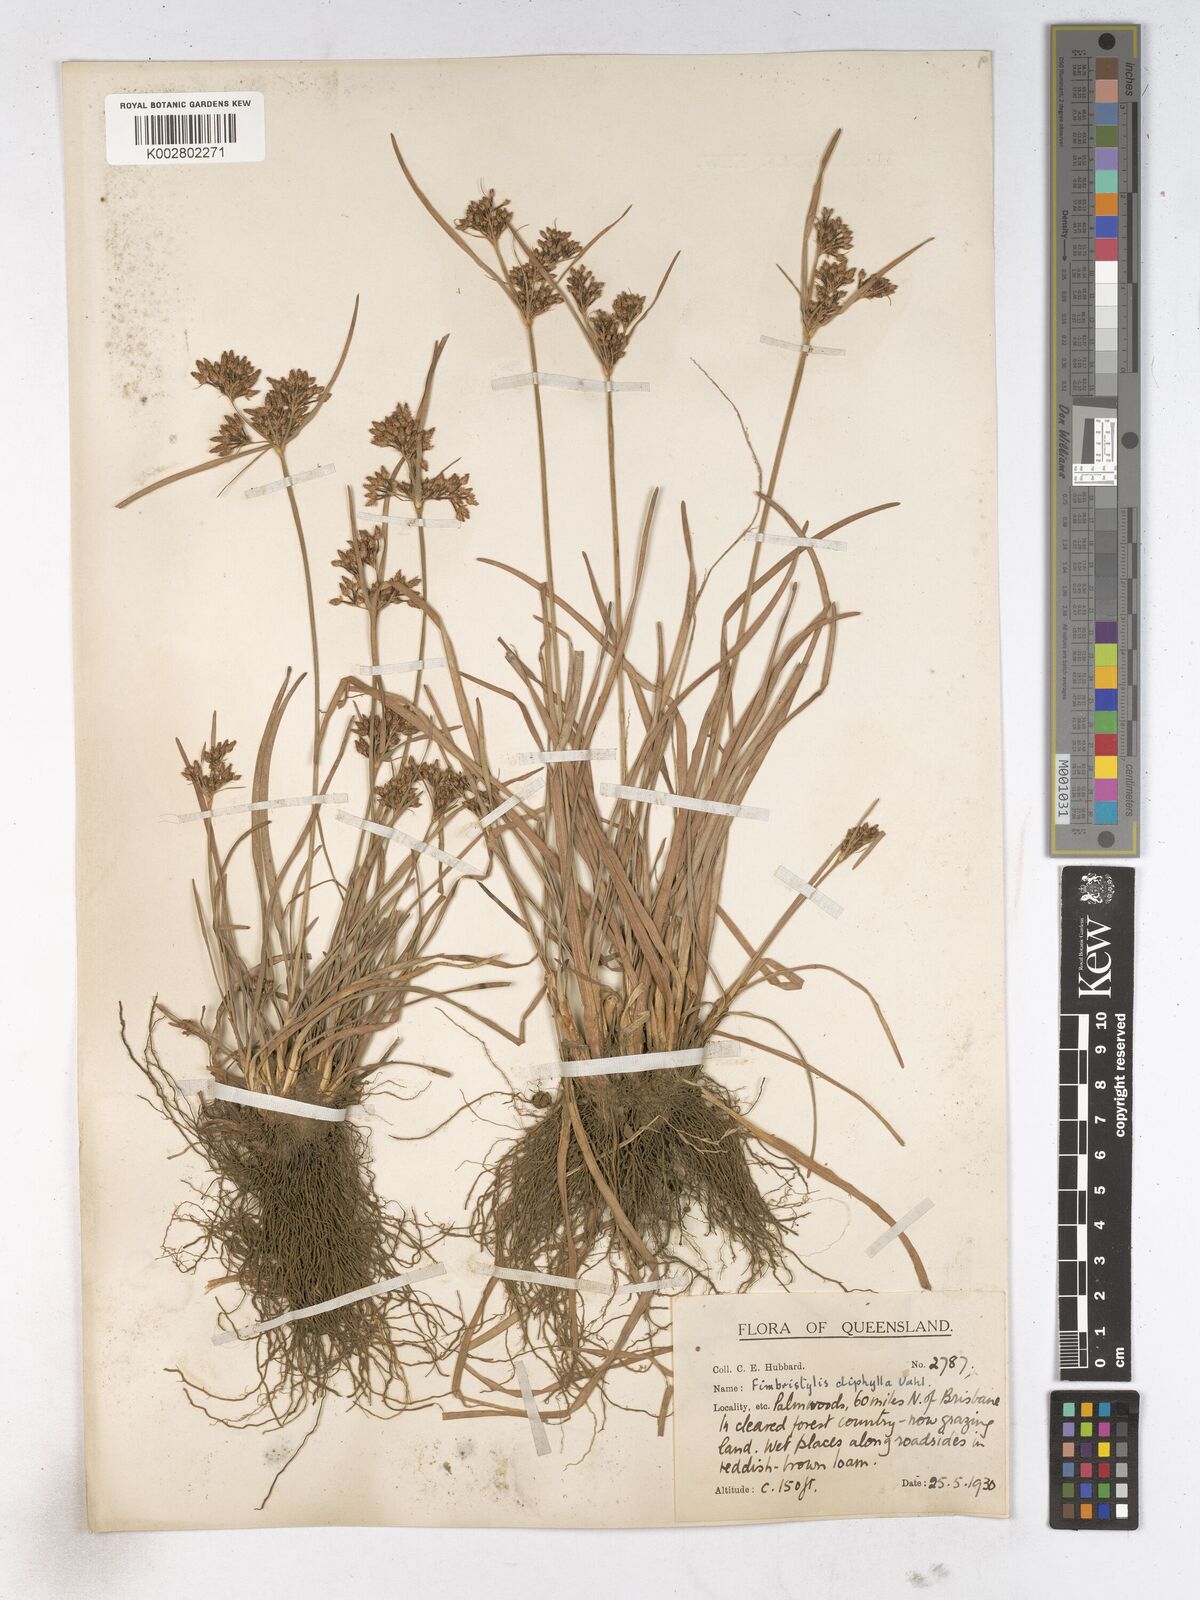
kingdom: Plantae
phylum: Tracheophyta
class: Liliopsida
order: Poales
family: Cyperaceae
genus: Fimbristylis
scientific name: Fimbristylis dichotoma
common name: Forked fimbry
